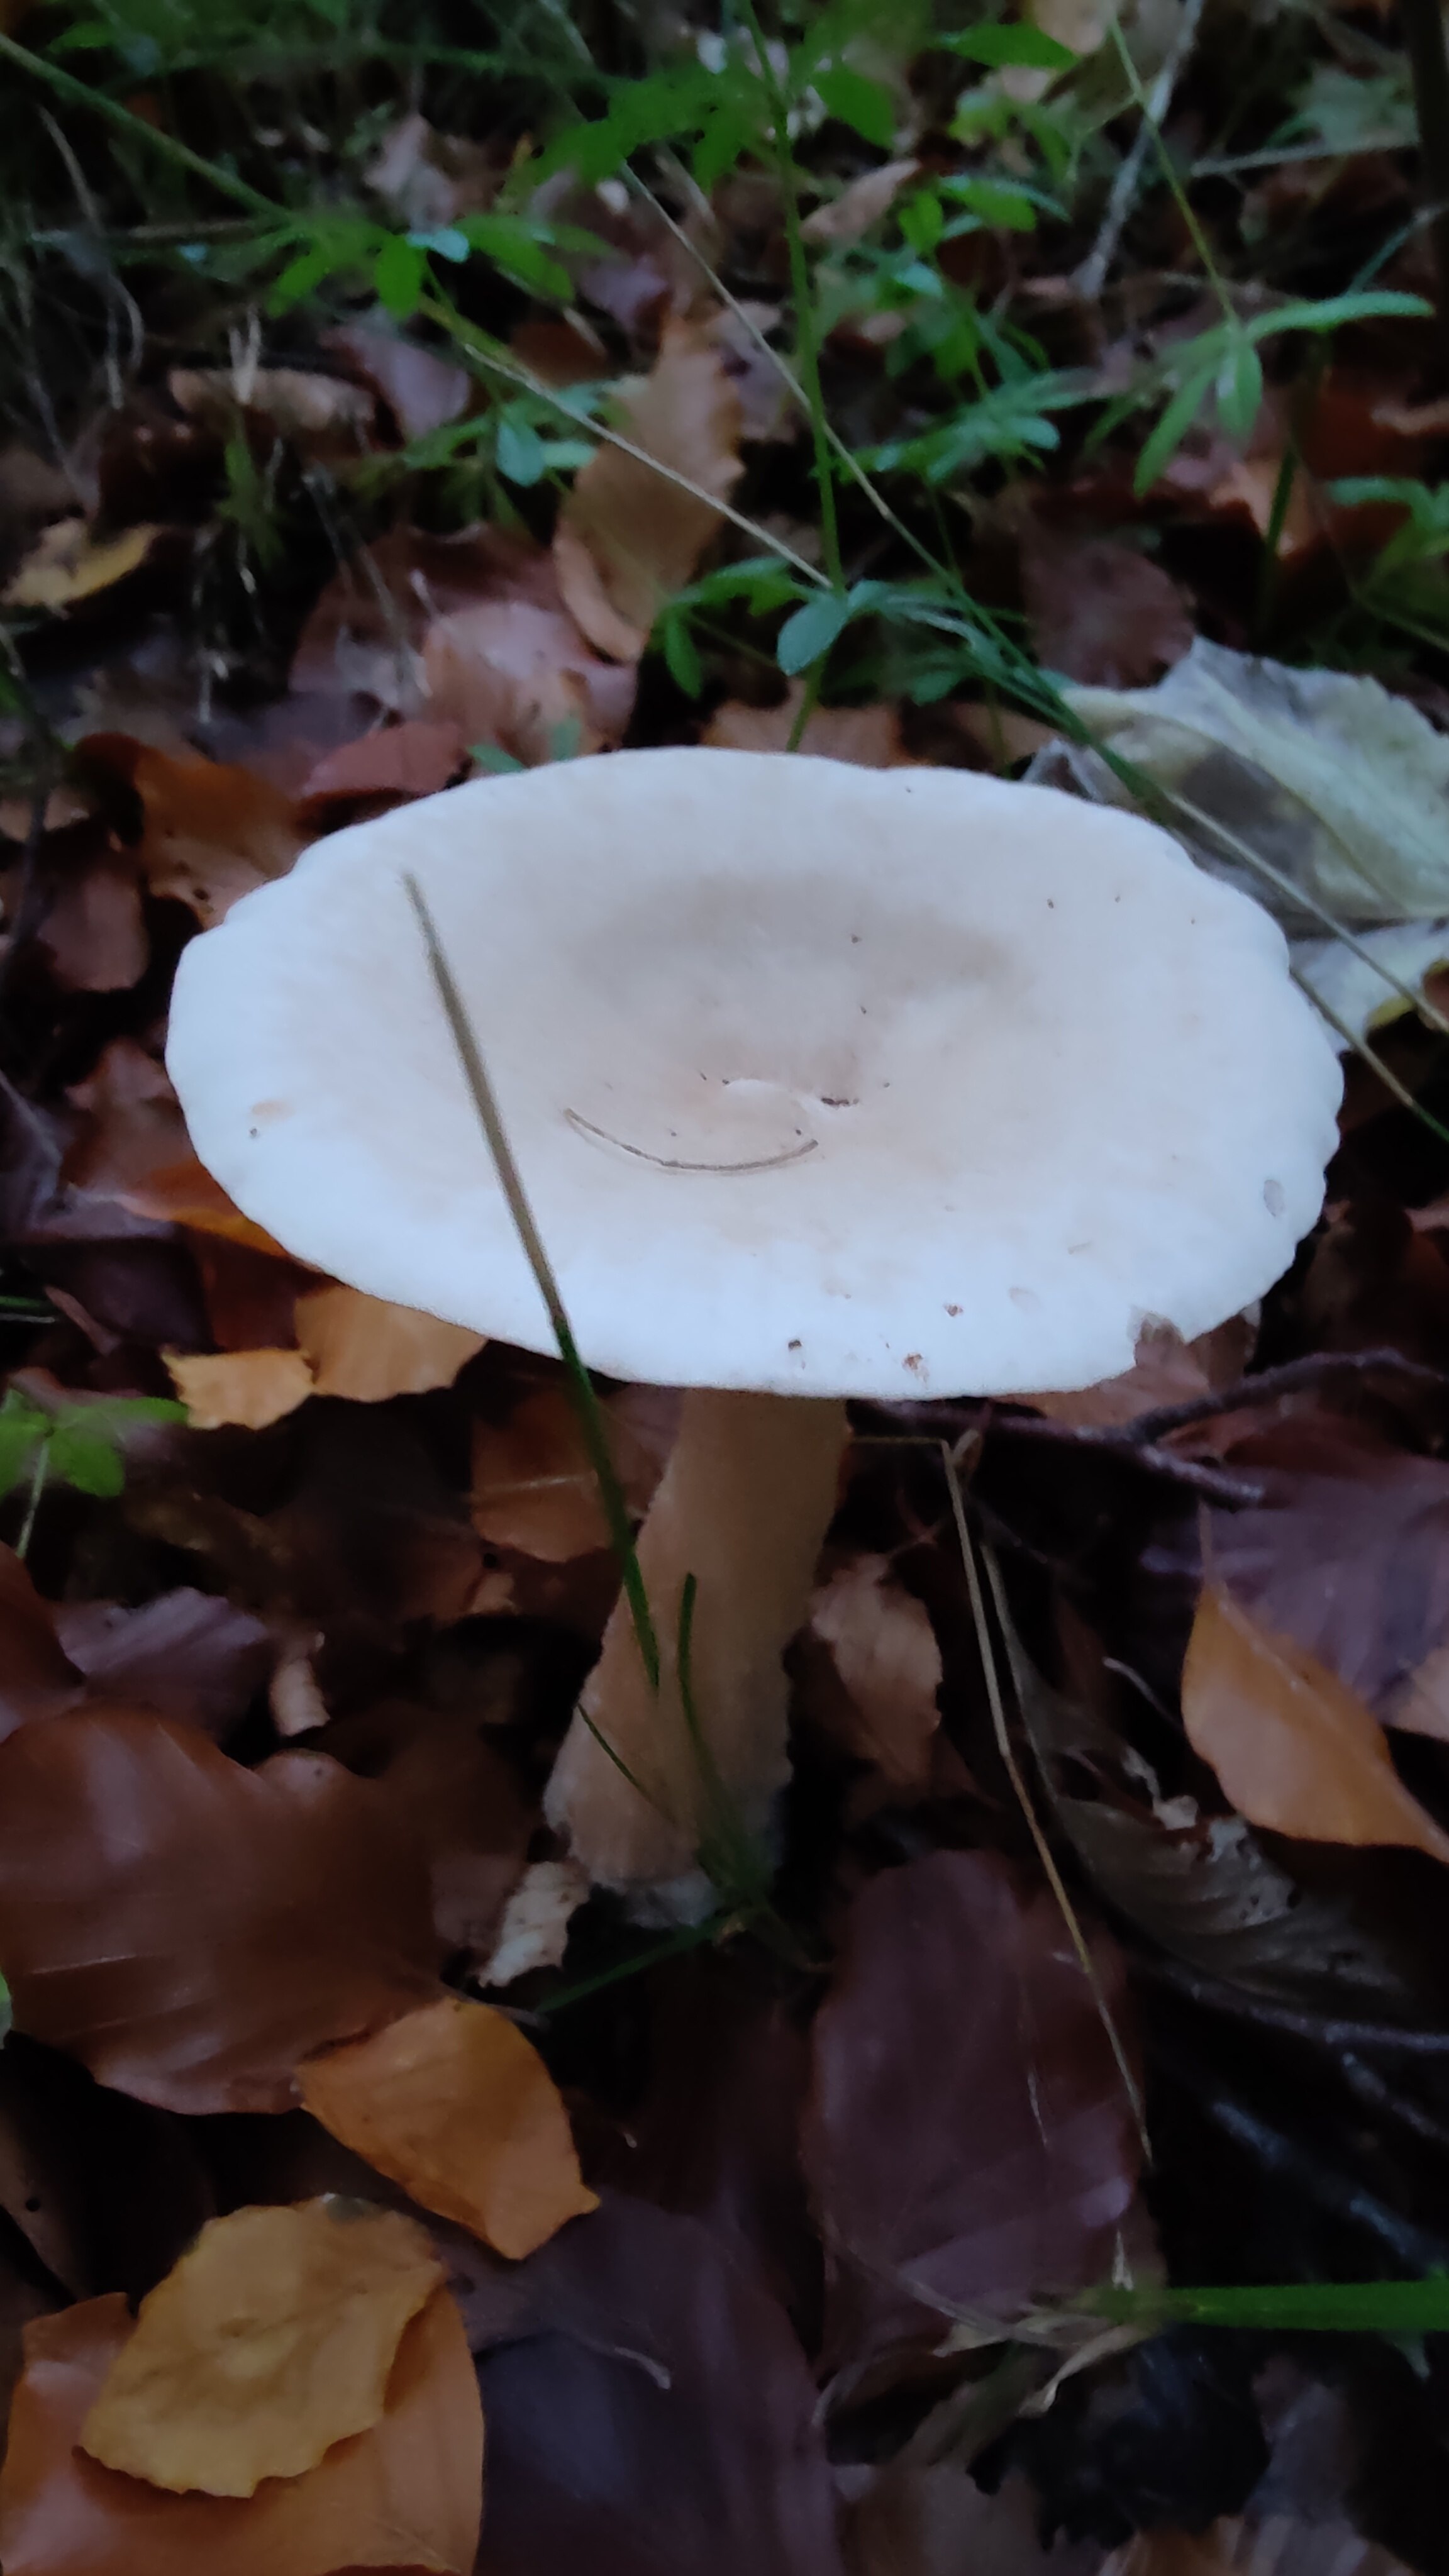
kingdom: Fungi
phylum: Basidiomycota
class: Agaricomycetes
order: Agaricales
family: Tricholomataceae
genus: Infundibulicybe
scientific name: Infundibulicybe geotropa
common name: stor tragthat
